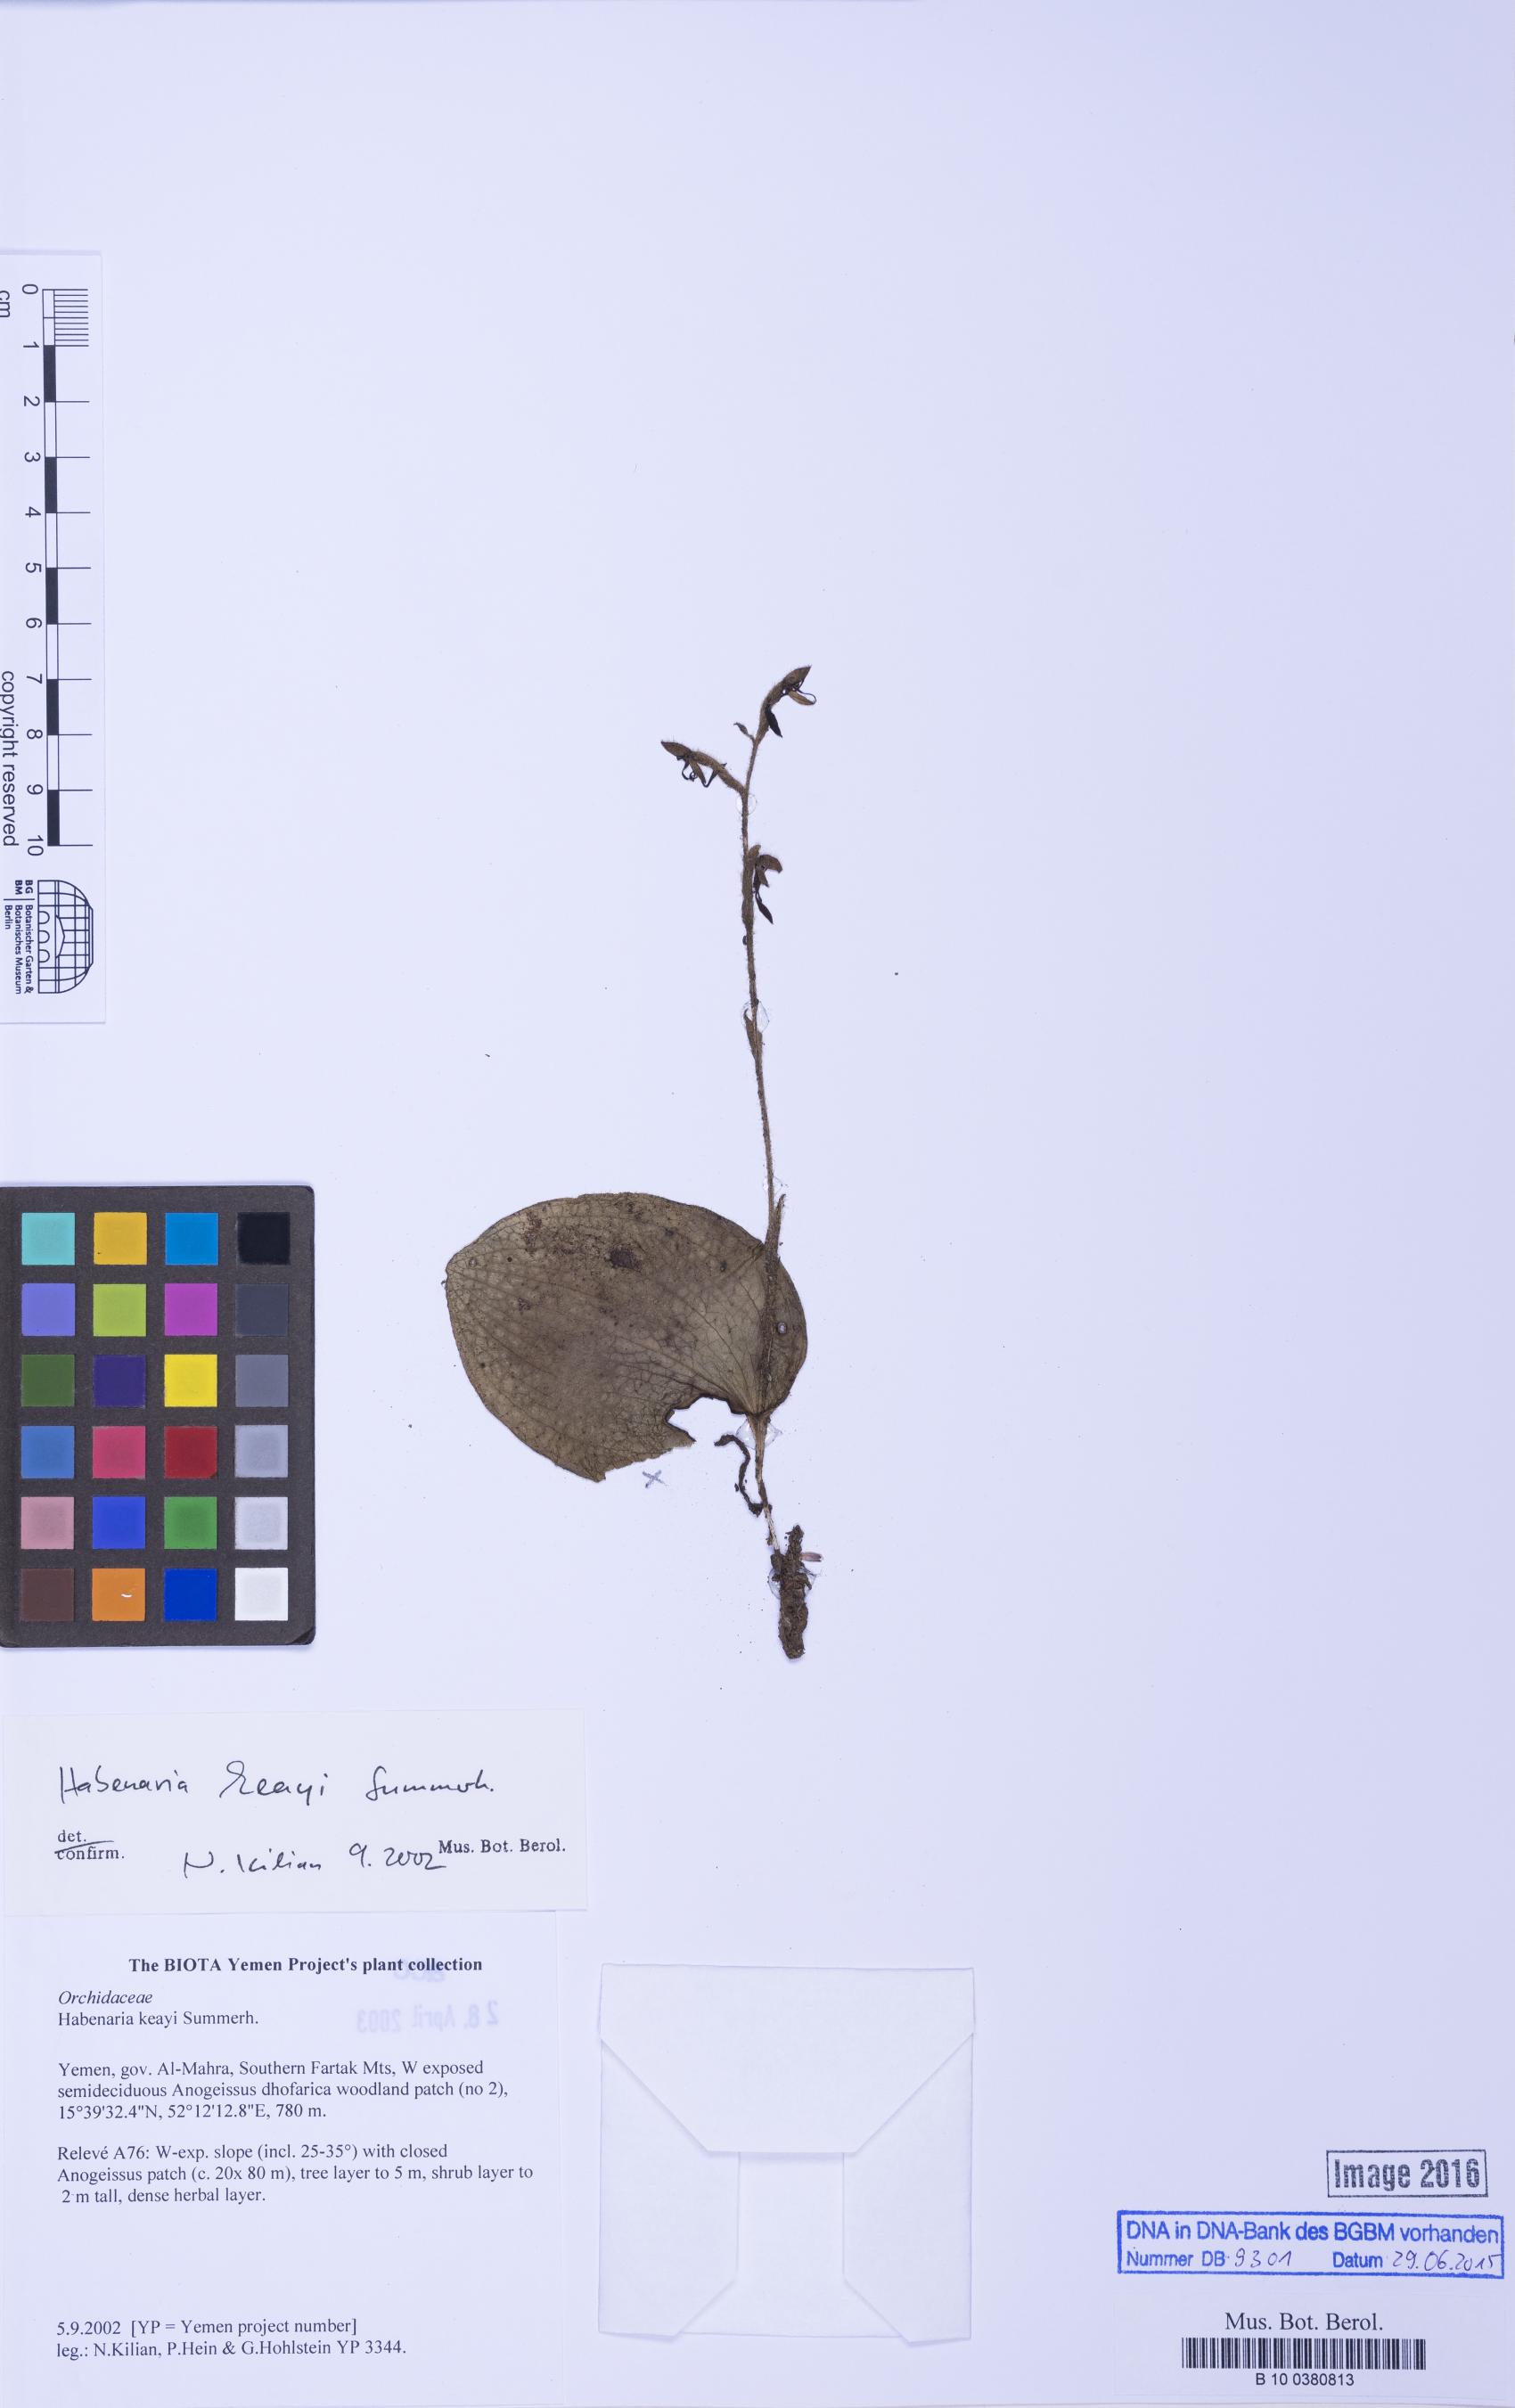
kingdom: Plantae
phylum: Tracheophyta
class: Liliopsida
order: Asparagales
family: Orchidaceae
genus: Habenaria
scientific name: Habenaria keayi
